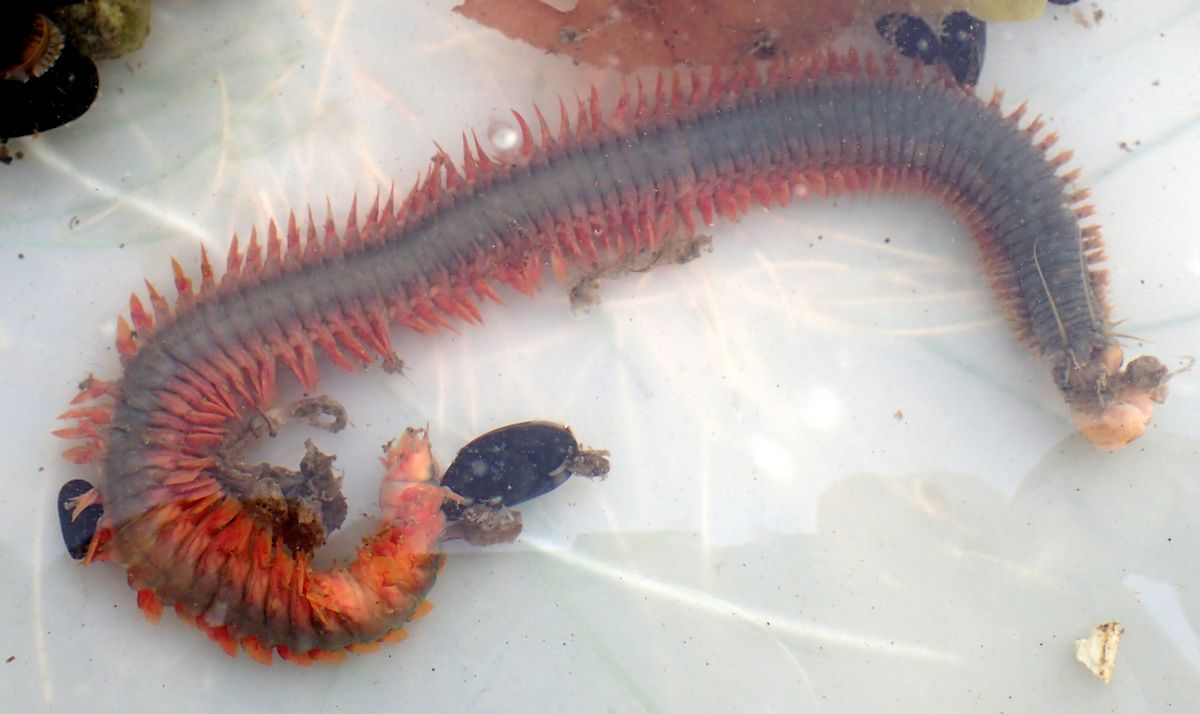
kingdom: Animalia
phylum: Annelida
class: Polychaeta
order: Phyllodocida
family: Nereididae
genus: Alitta
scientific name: Alitta
